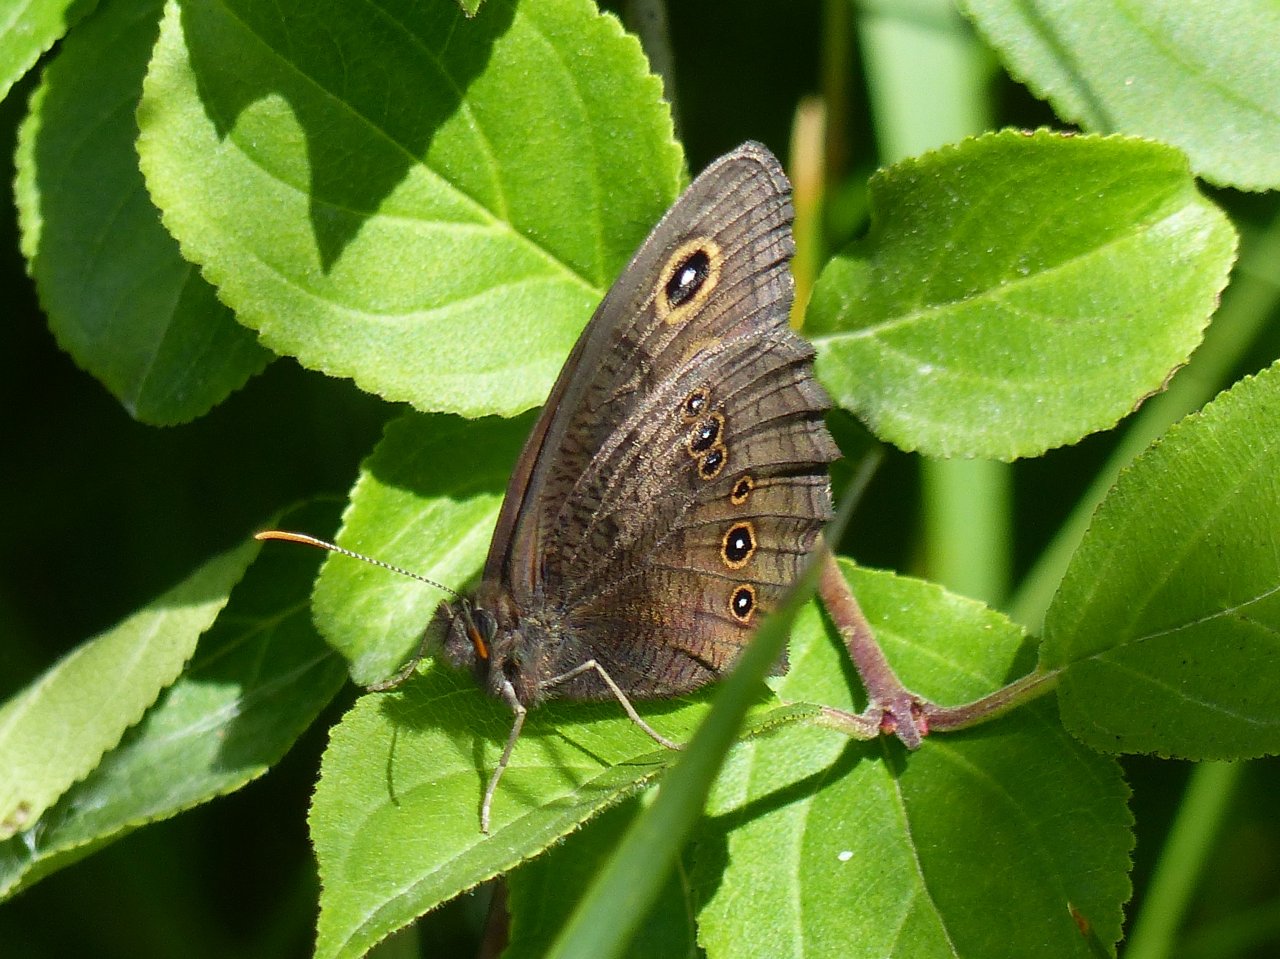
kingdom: Animalia
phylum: Arthropoda
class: Insecta
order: Lepidoptera
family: Nymphalidae
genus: Cercyonis
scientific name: Cercyonis pegala
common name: Common Wood-Nymph
